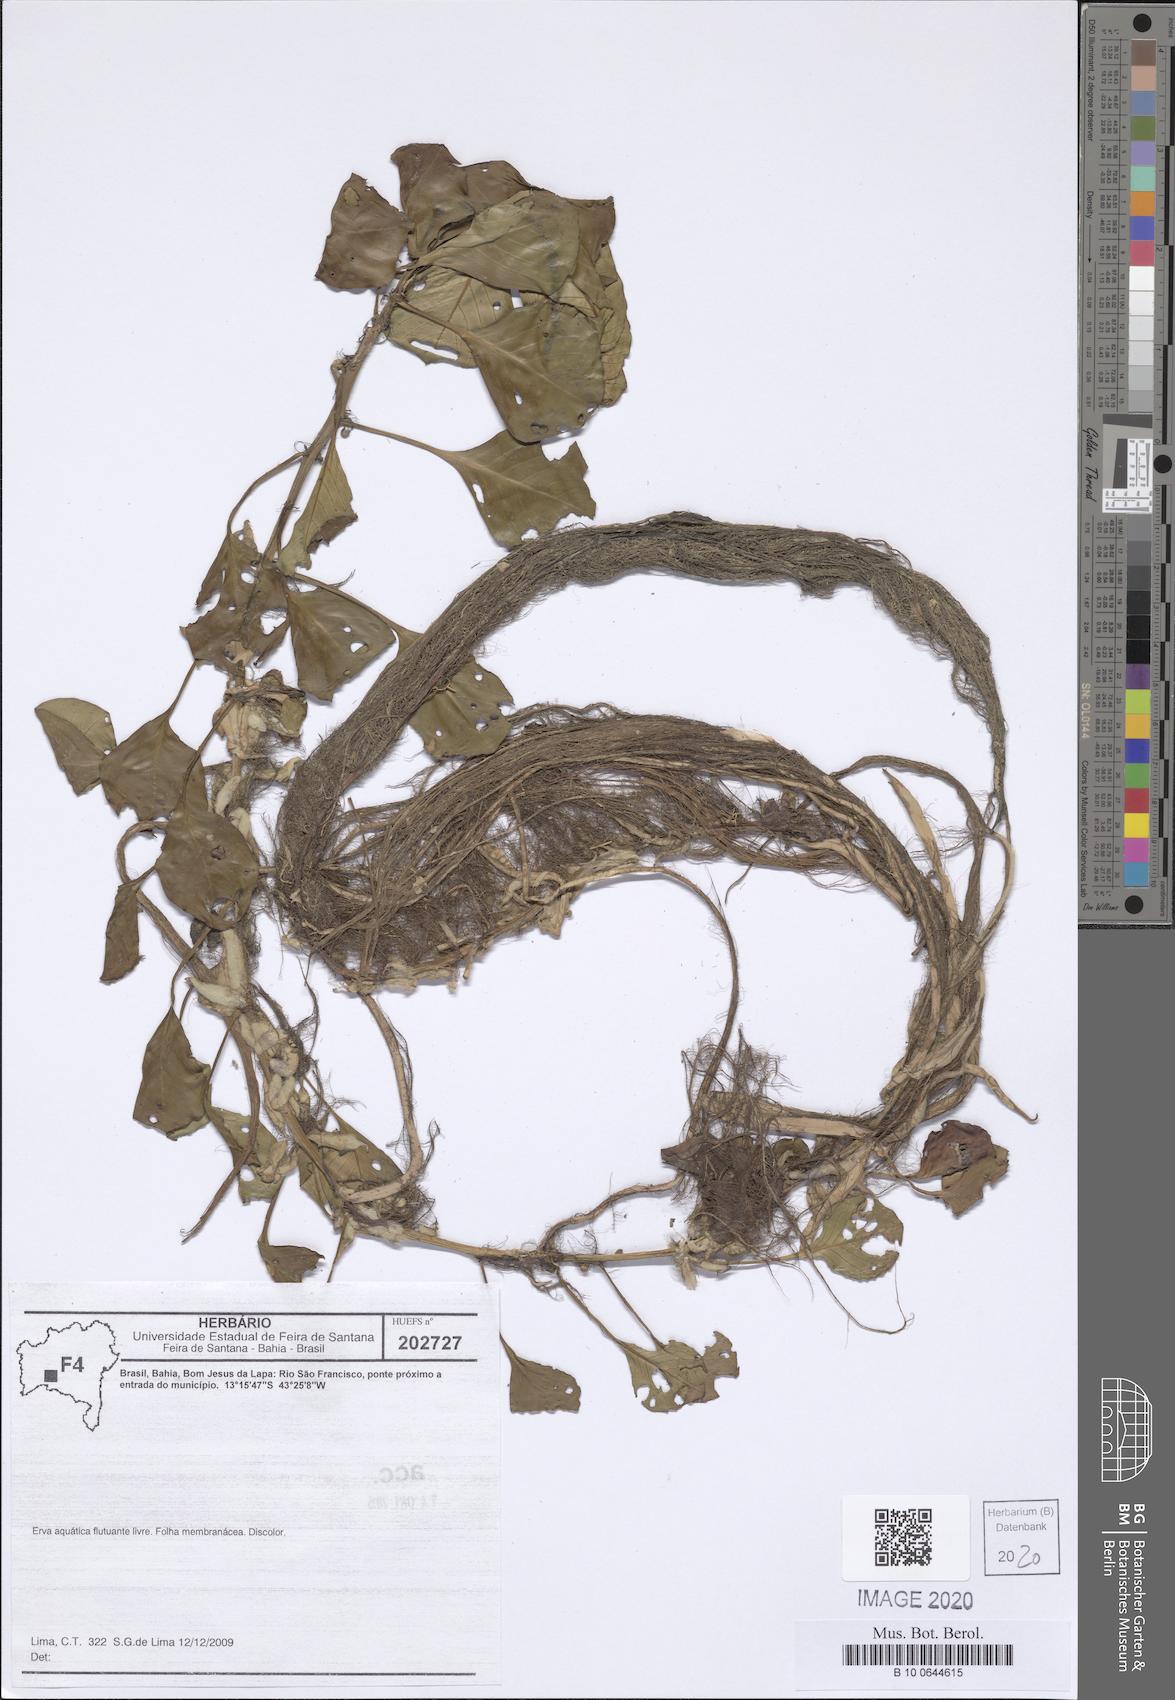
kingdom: Plantae
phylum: Tracheophyta
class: Magnoliopsida
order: Myrtales
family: Onagraceae
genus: Ludwigia
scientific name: Ludwigia
